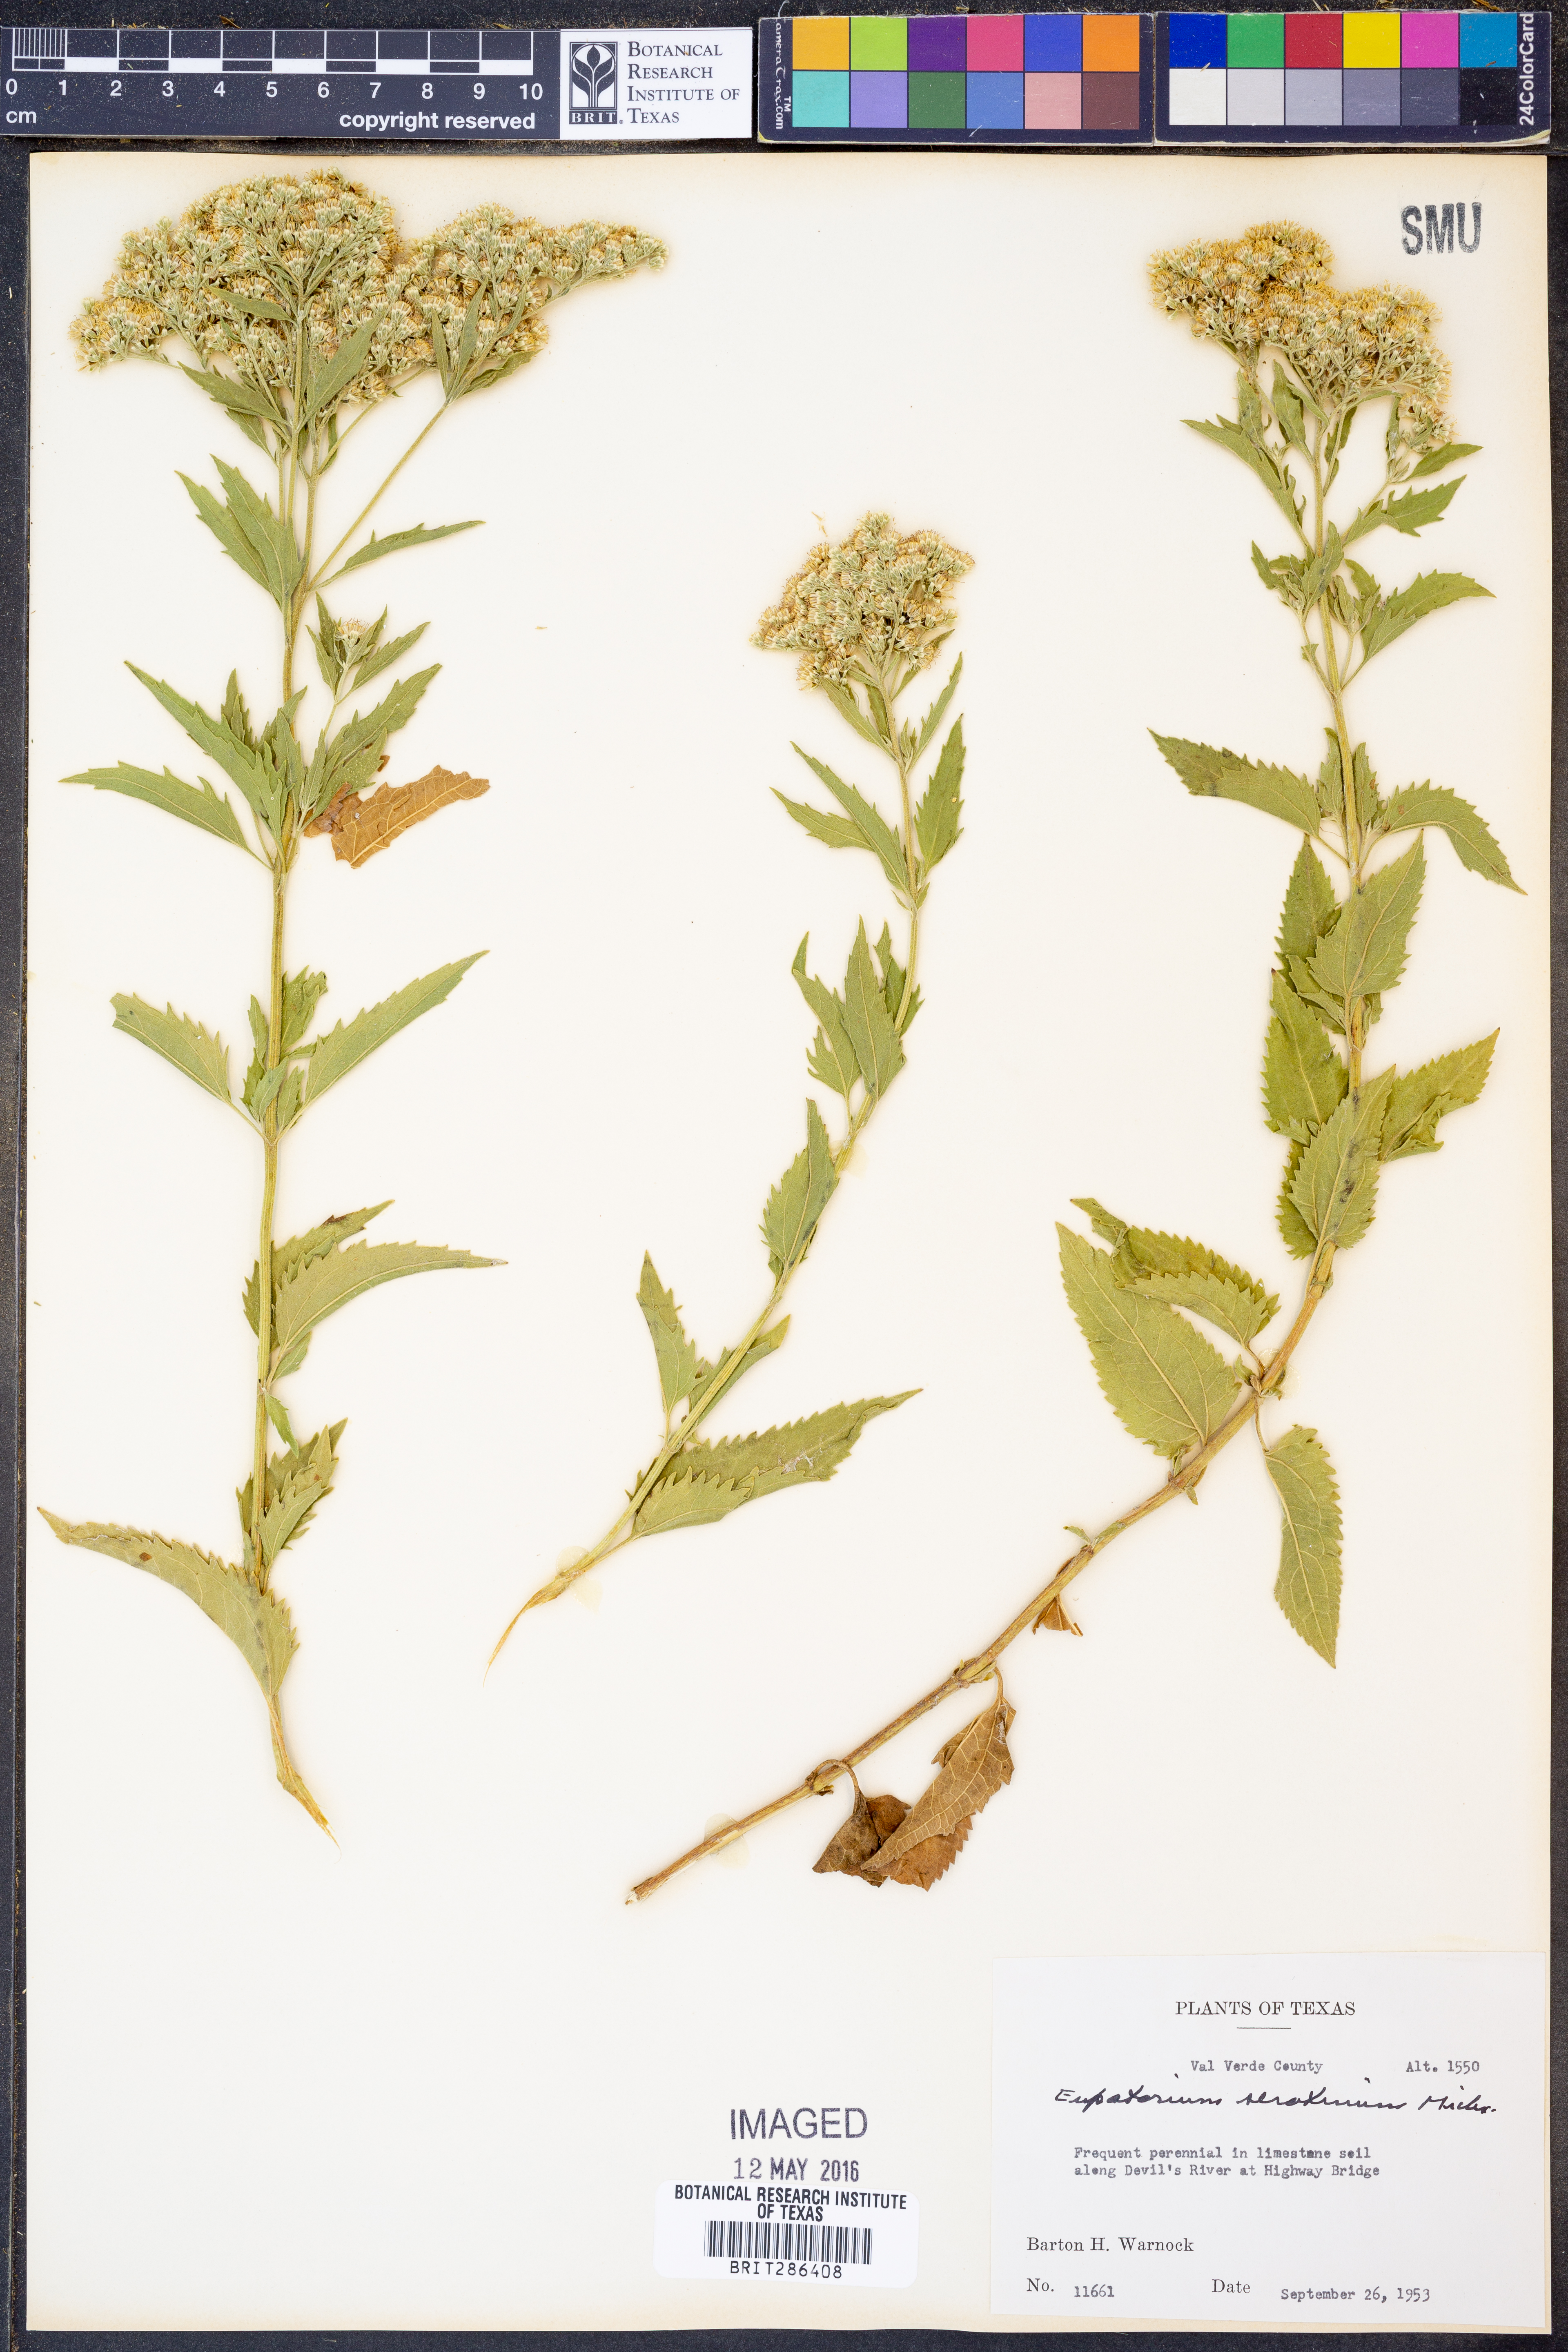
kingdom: Plantae
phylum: Tracheophyta
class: Magnoliopsida
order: Asterales
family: Asteraceae
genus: Eupatorium
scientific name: Eupatorium serotinum
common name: Late boneset
